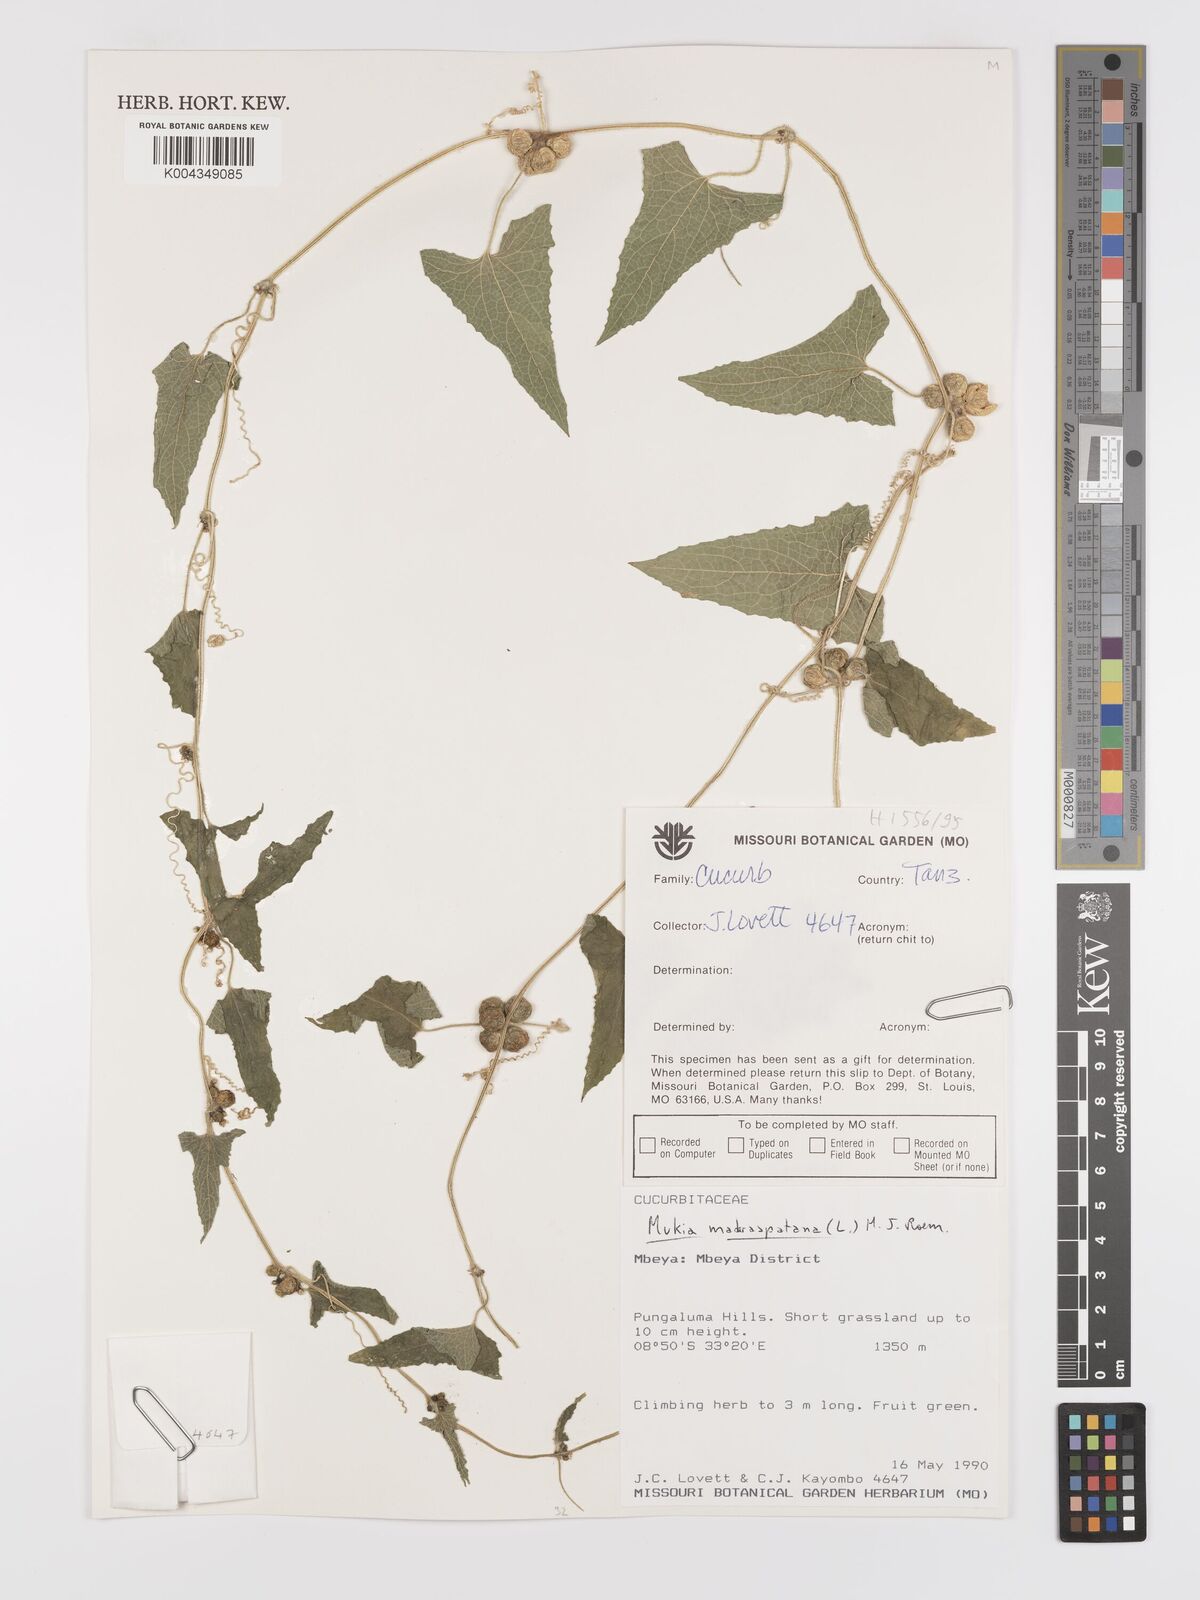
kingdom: Plantae
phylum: Tracheophyta
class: Magnoliopsida
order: Cucurbitales
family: Cucurbitaceae
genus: Cucumis
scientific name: Cucumis maderaspatanus
